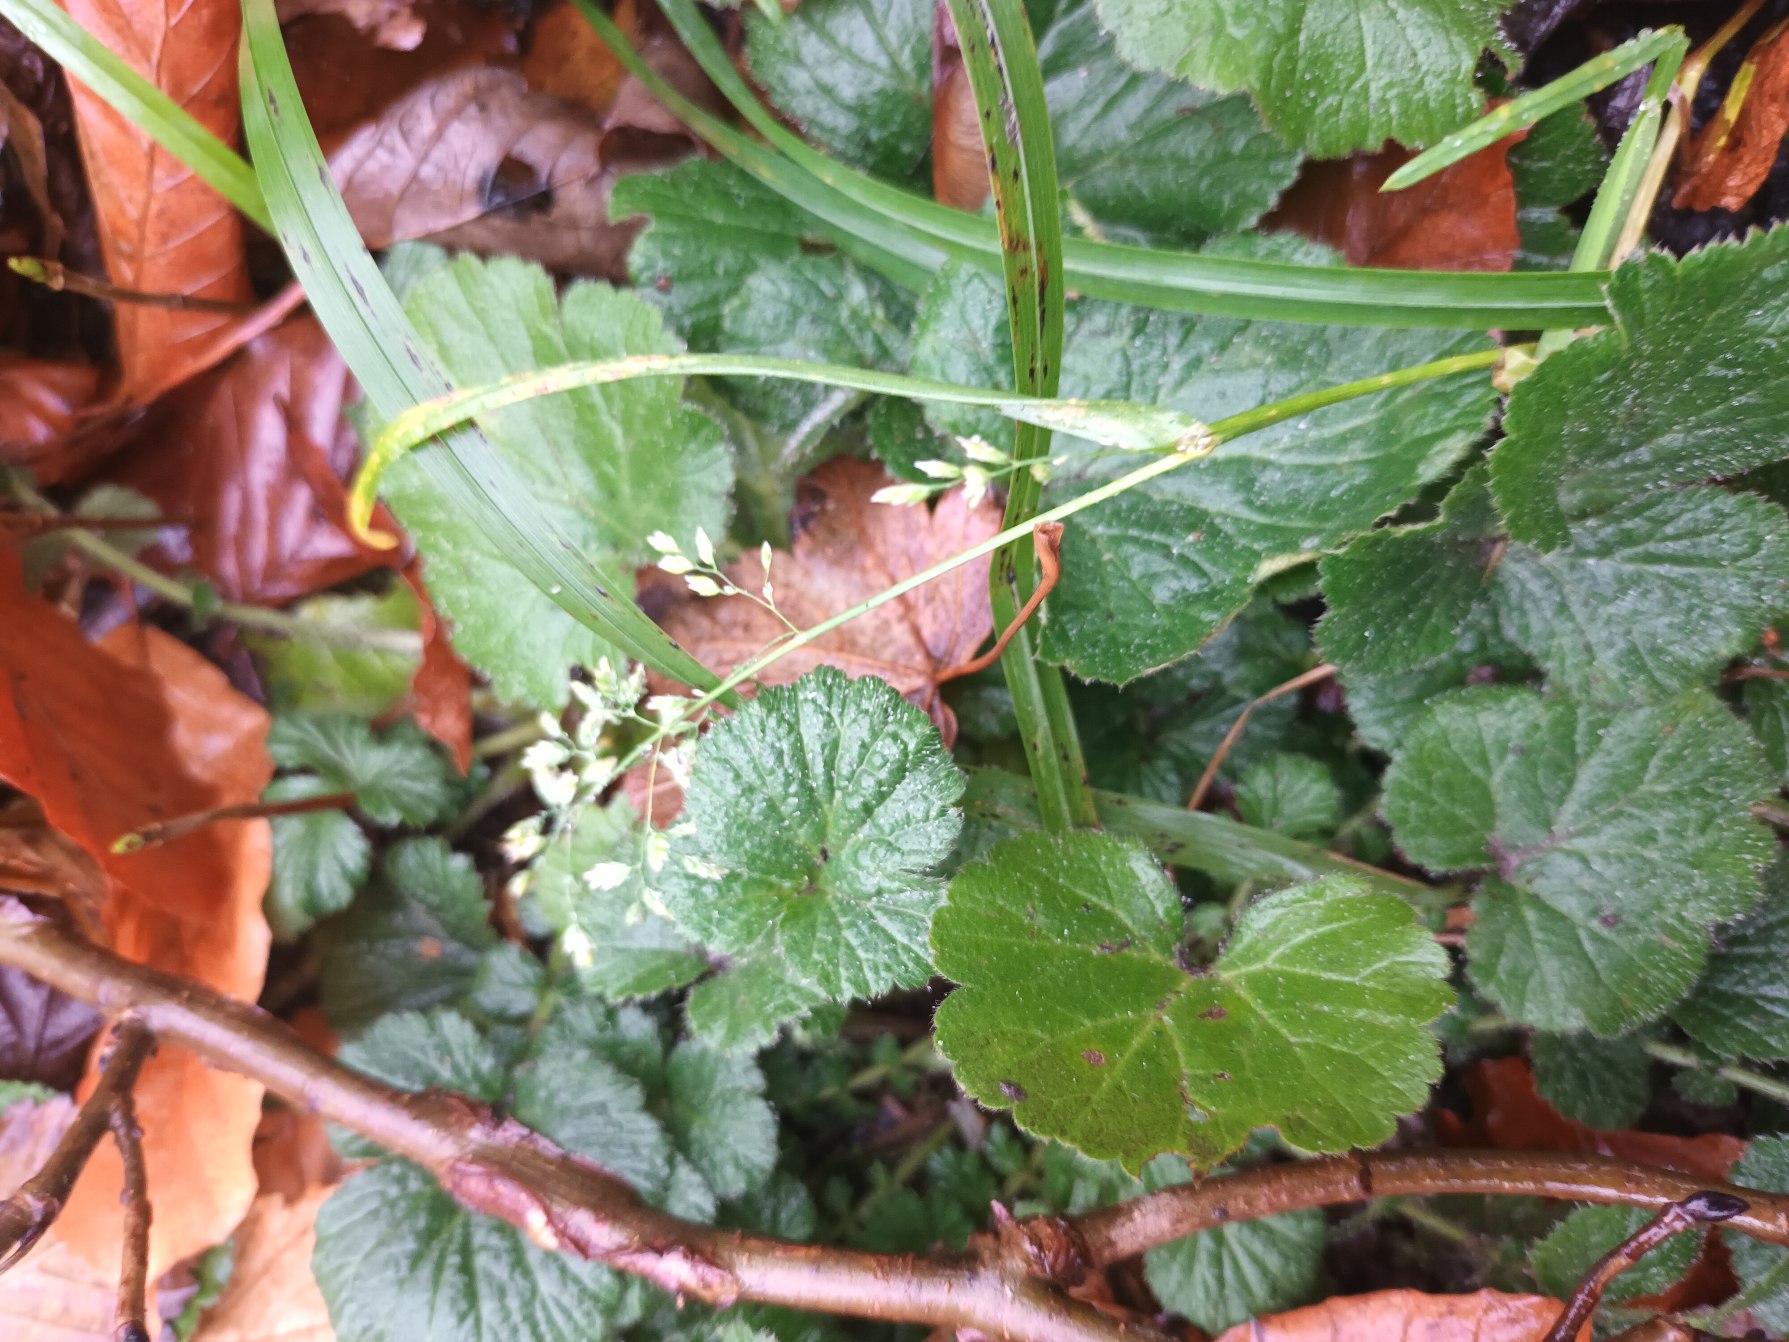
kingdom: Plantae
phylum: Tracheophyta
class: Liliopsida
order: Poales
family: Poaceae
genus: Poa
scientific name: Poa annua
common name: Enårig rapgræs
